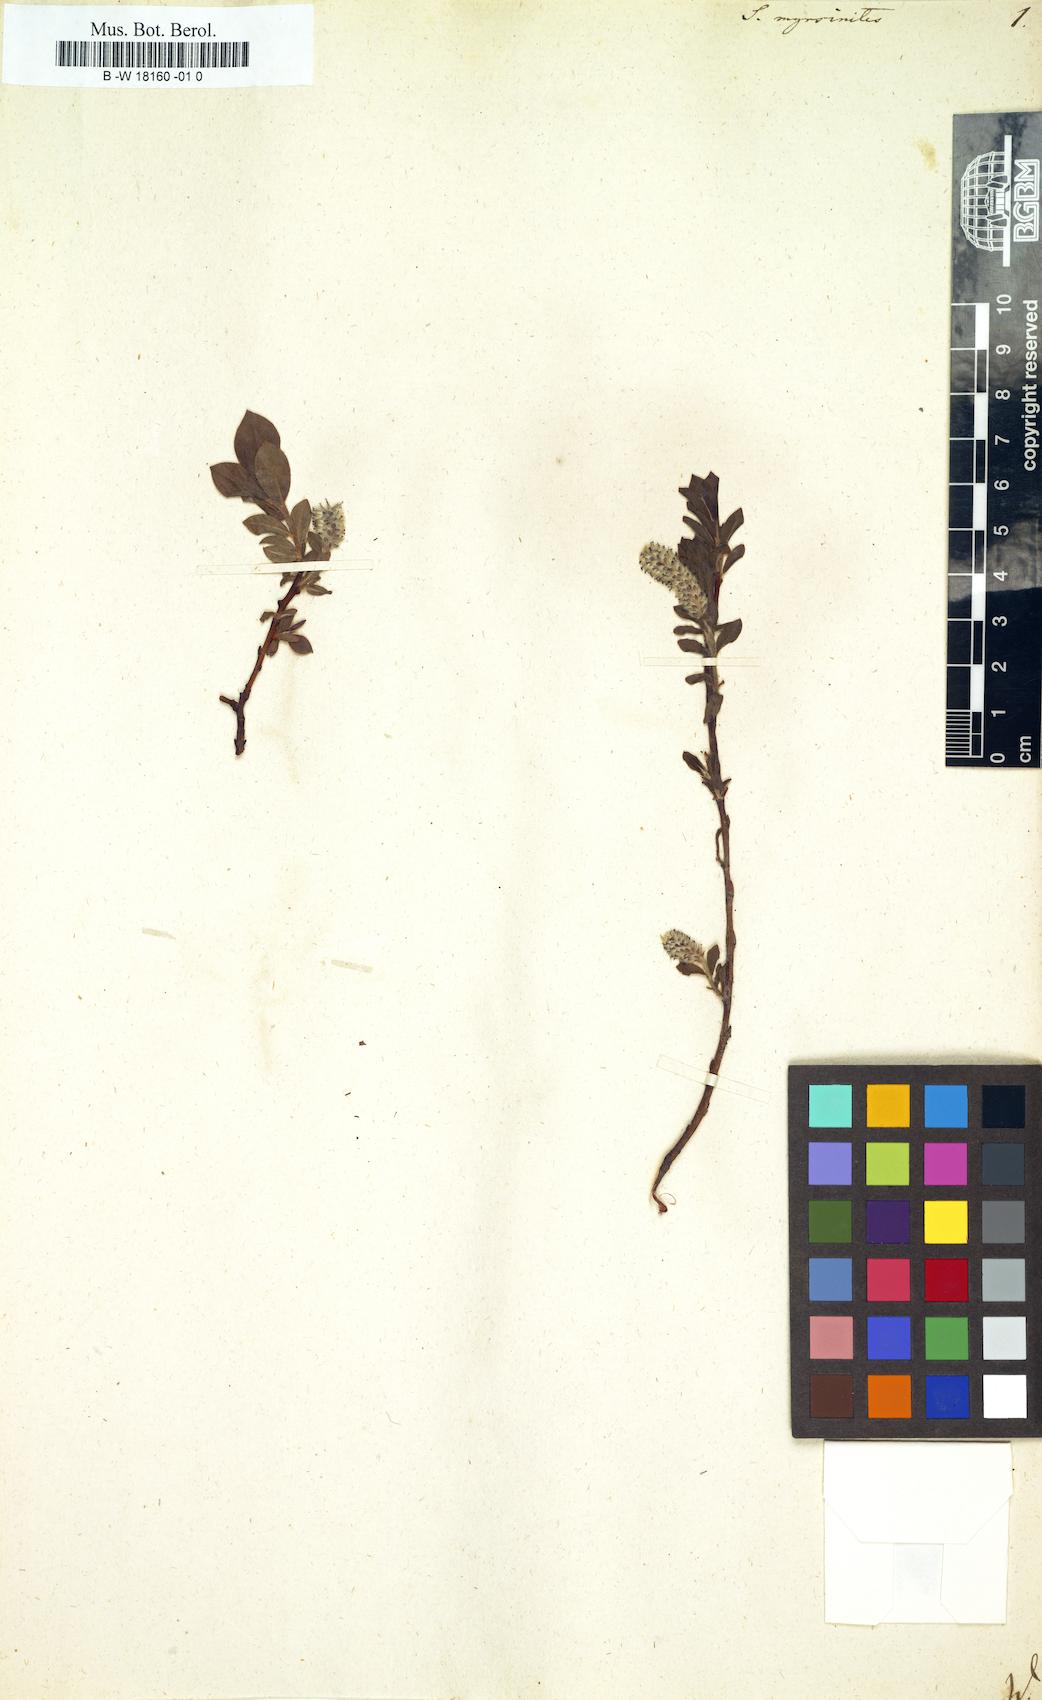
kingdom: Plantae
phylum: Tracheophyta
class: Magnoliopsida
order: Malpighiales
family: Salicaceae
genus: Salix
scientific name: Salix myrsinites
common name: Myrtle willow
